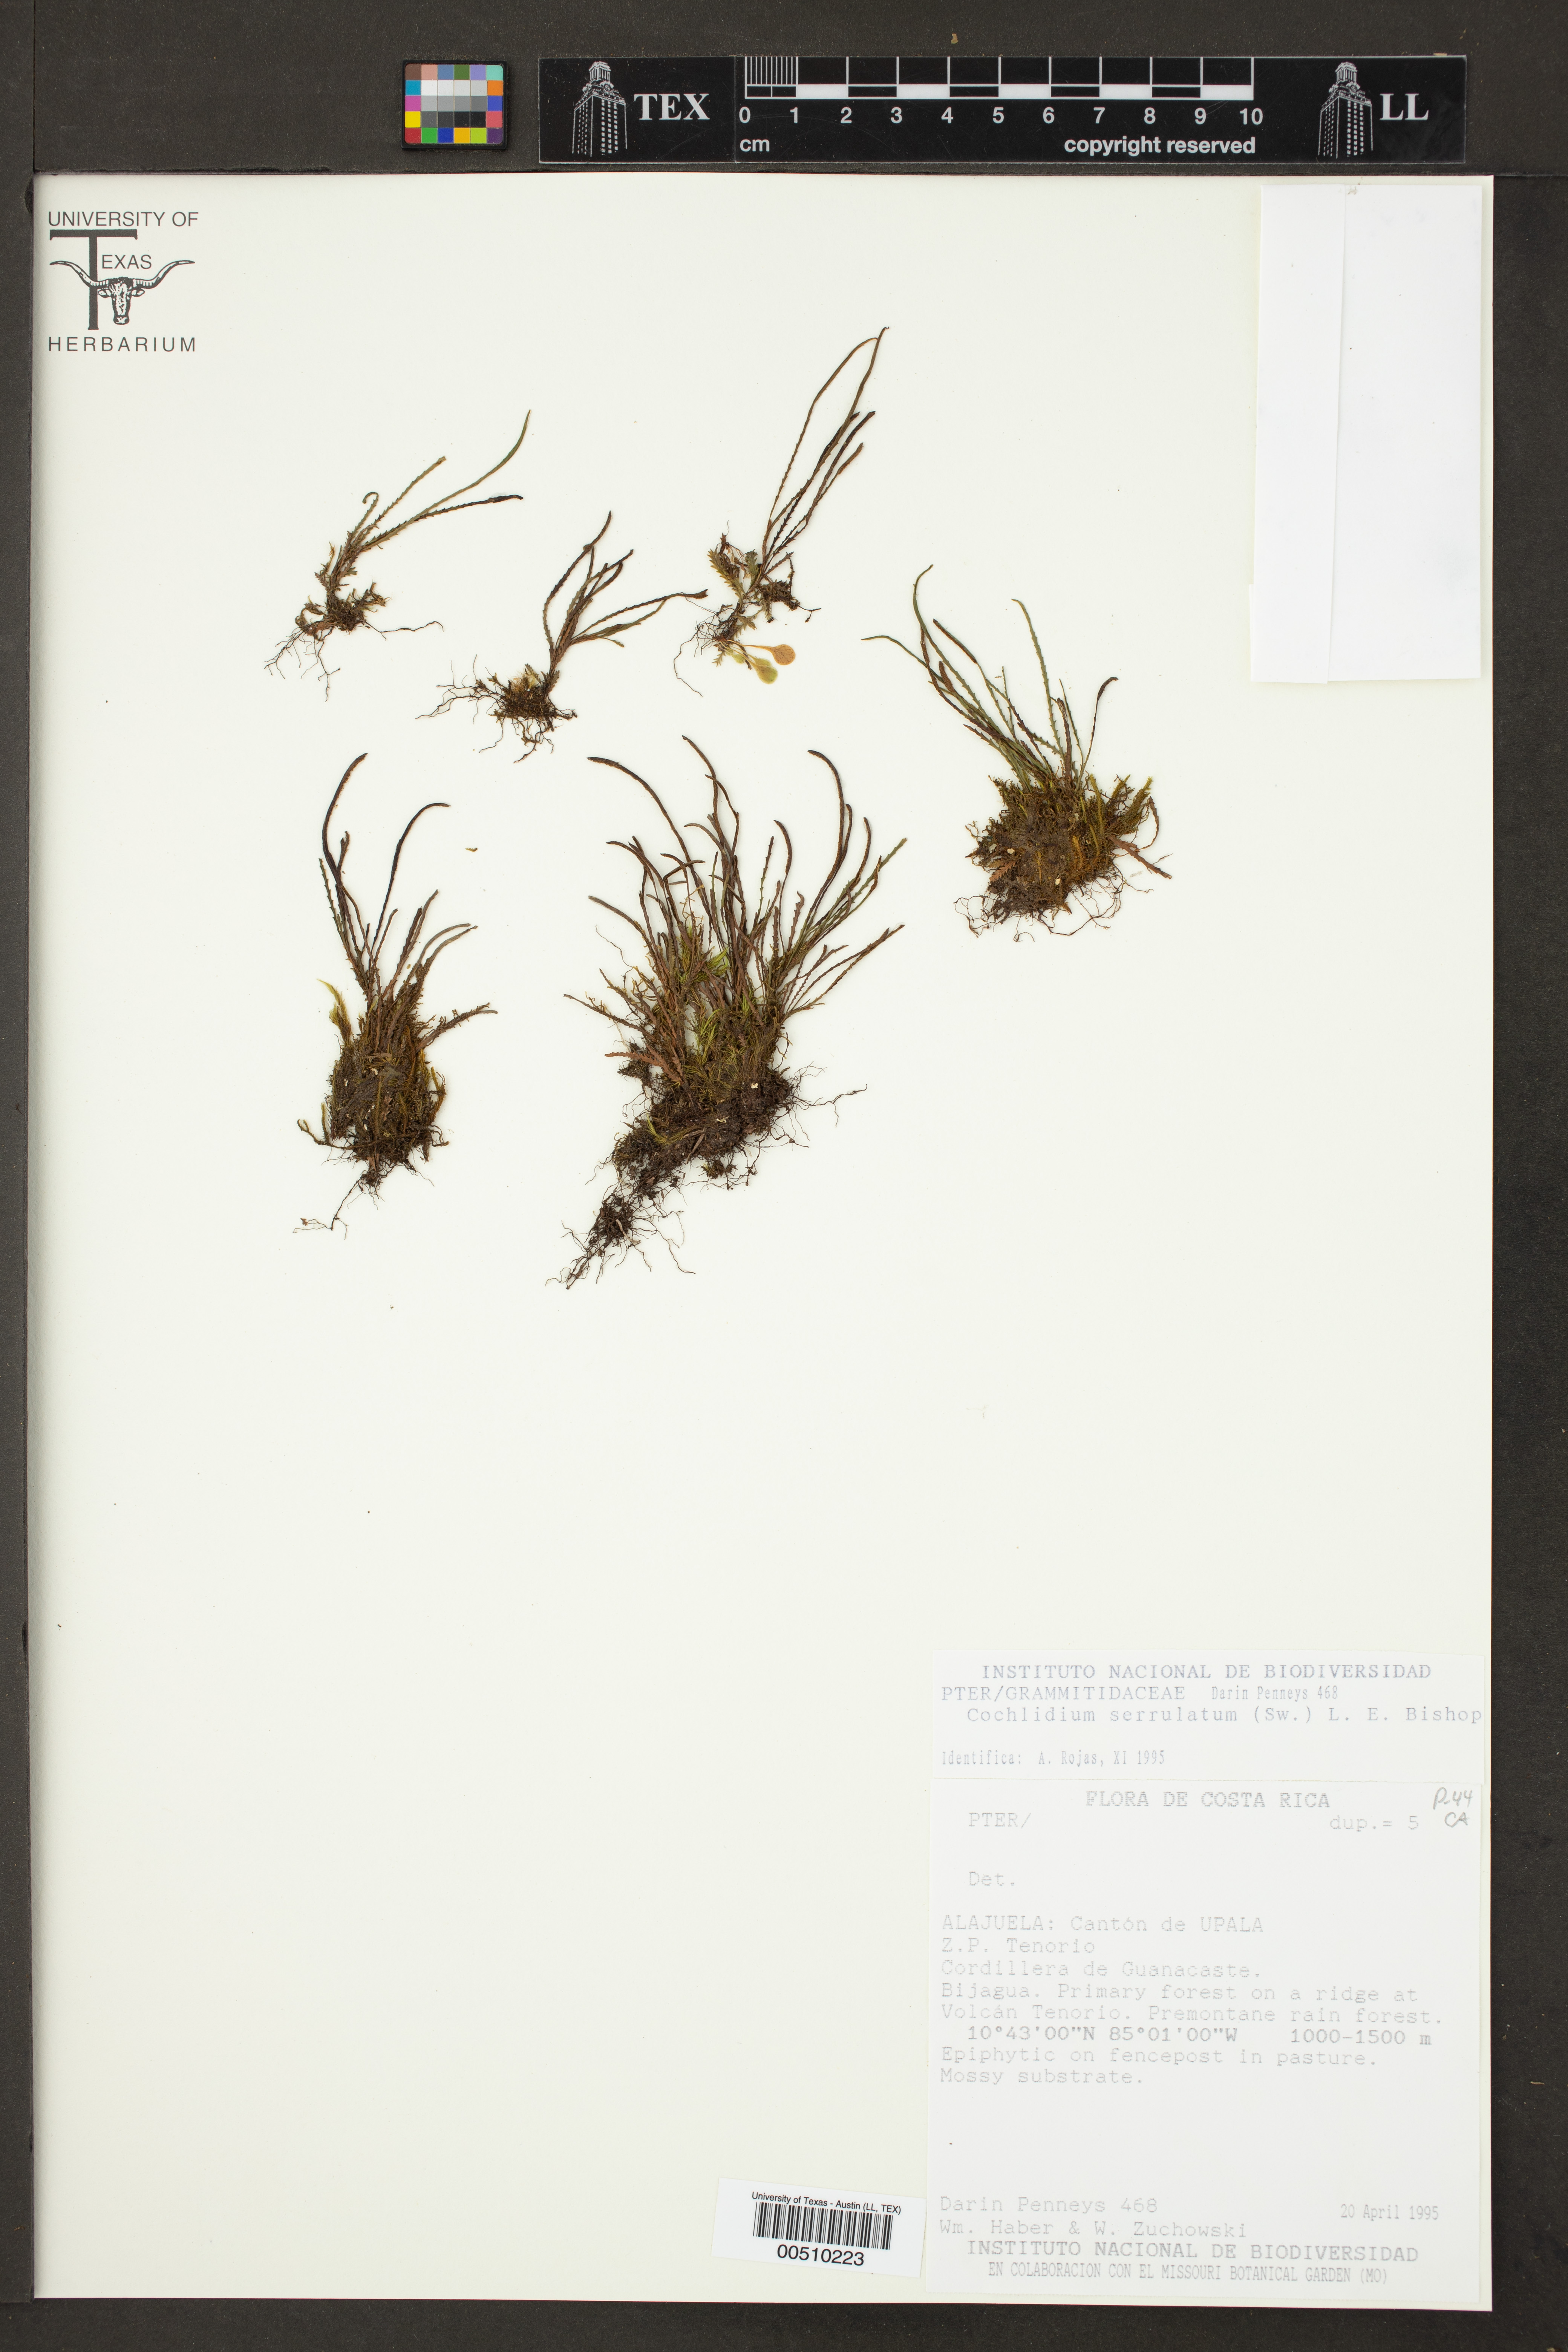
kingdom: Plantae
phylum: Tracheophyta
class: Polypodiopsida
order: Polypodiales
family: Polypodiaceae
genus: Cochlidium
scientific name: Cochlidium serrulatum
